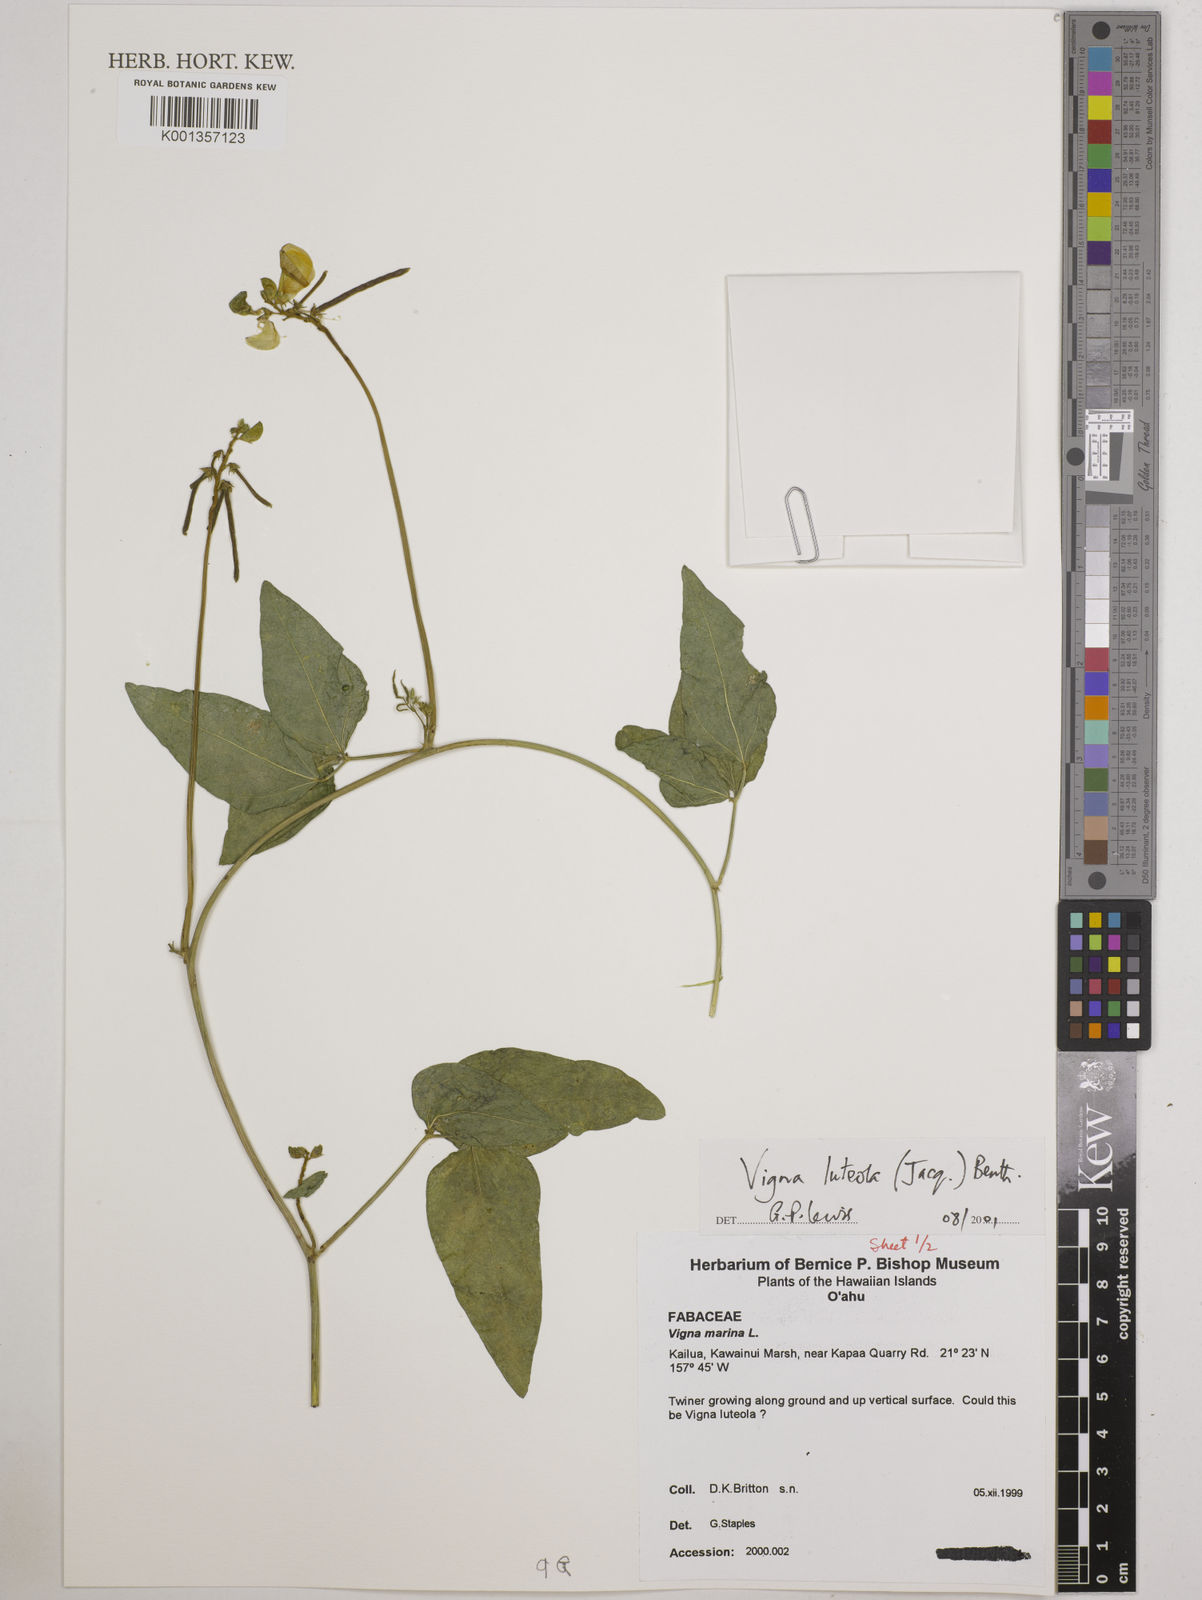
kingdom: Plantae
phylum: Tracheophyta
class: Magnoliopsida
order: Fabales
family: Fabaceae
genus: Vigna
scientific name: Vigna luteola
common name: Hairypod cowpea
